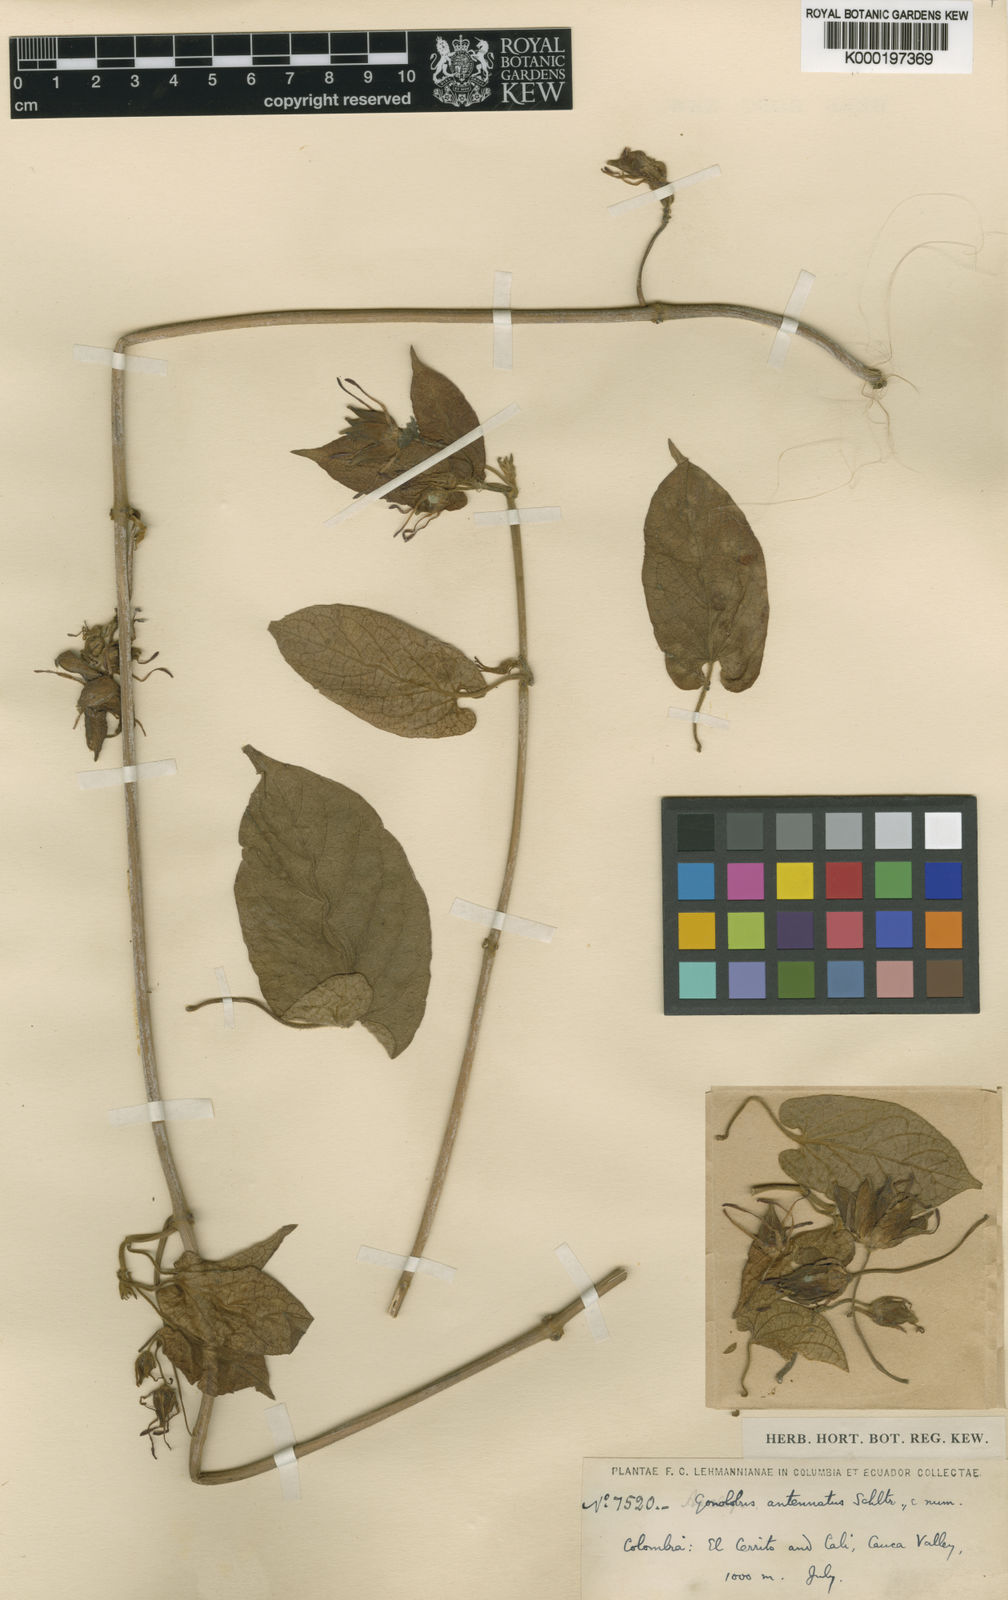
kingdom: Plantae
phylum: Tracheophyta
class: Magnoliopsida
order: Gentianales
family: Apocynaceae
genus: Gonolobus
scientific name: Gonolobus antennatus
